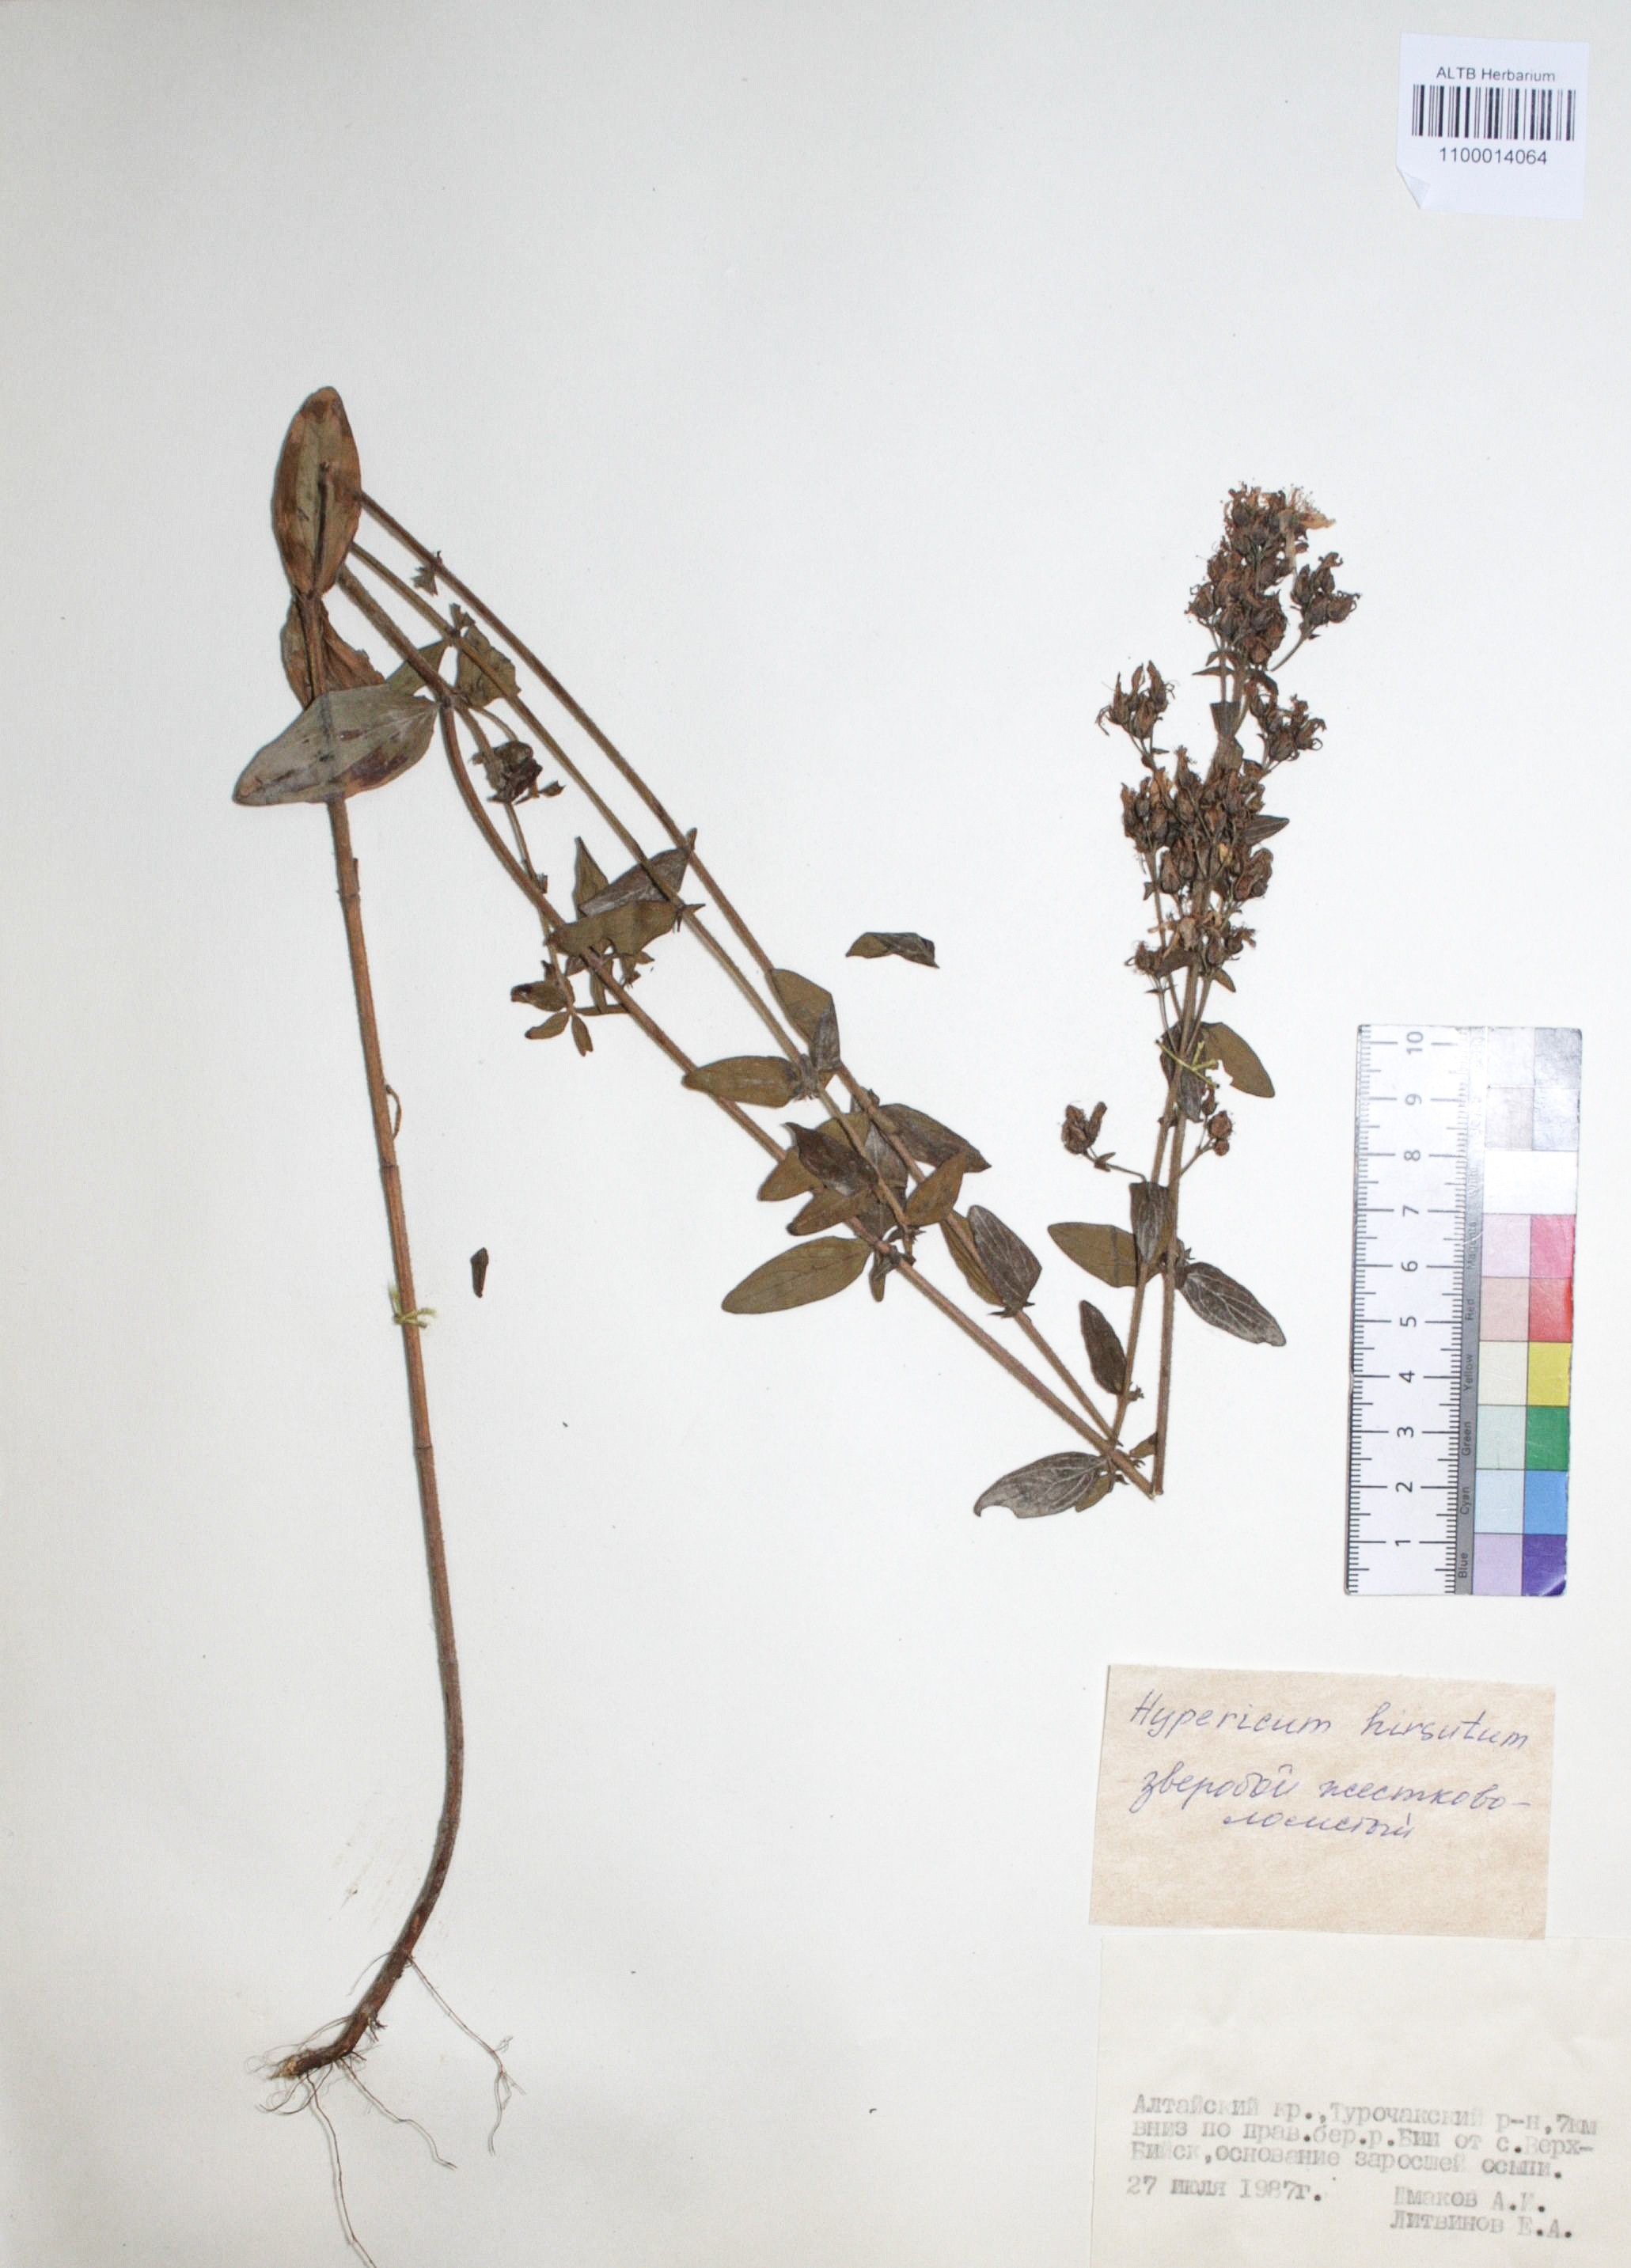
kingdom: Plantae
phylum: Tracheophyta
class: Magnoliopsida
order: Malpighiales
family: Hypericaceae
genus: Hypericum
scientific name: Hypericum hirsutum
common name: Hairy st. john's-wort
